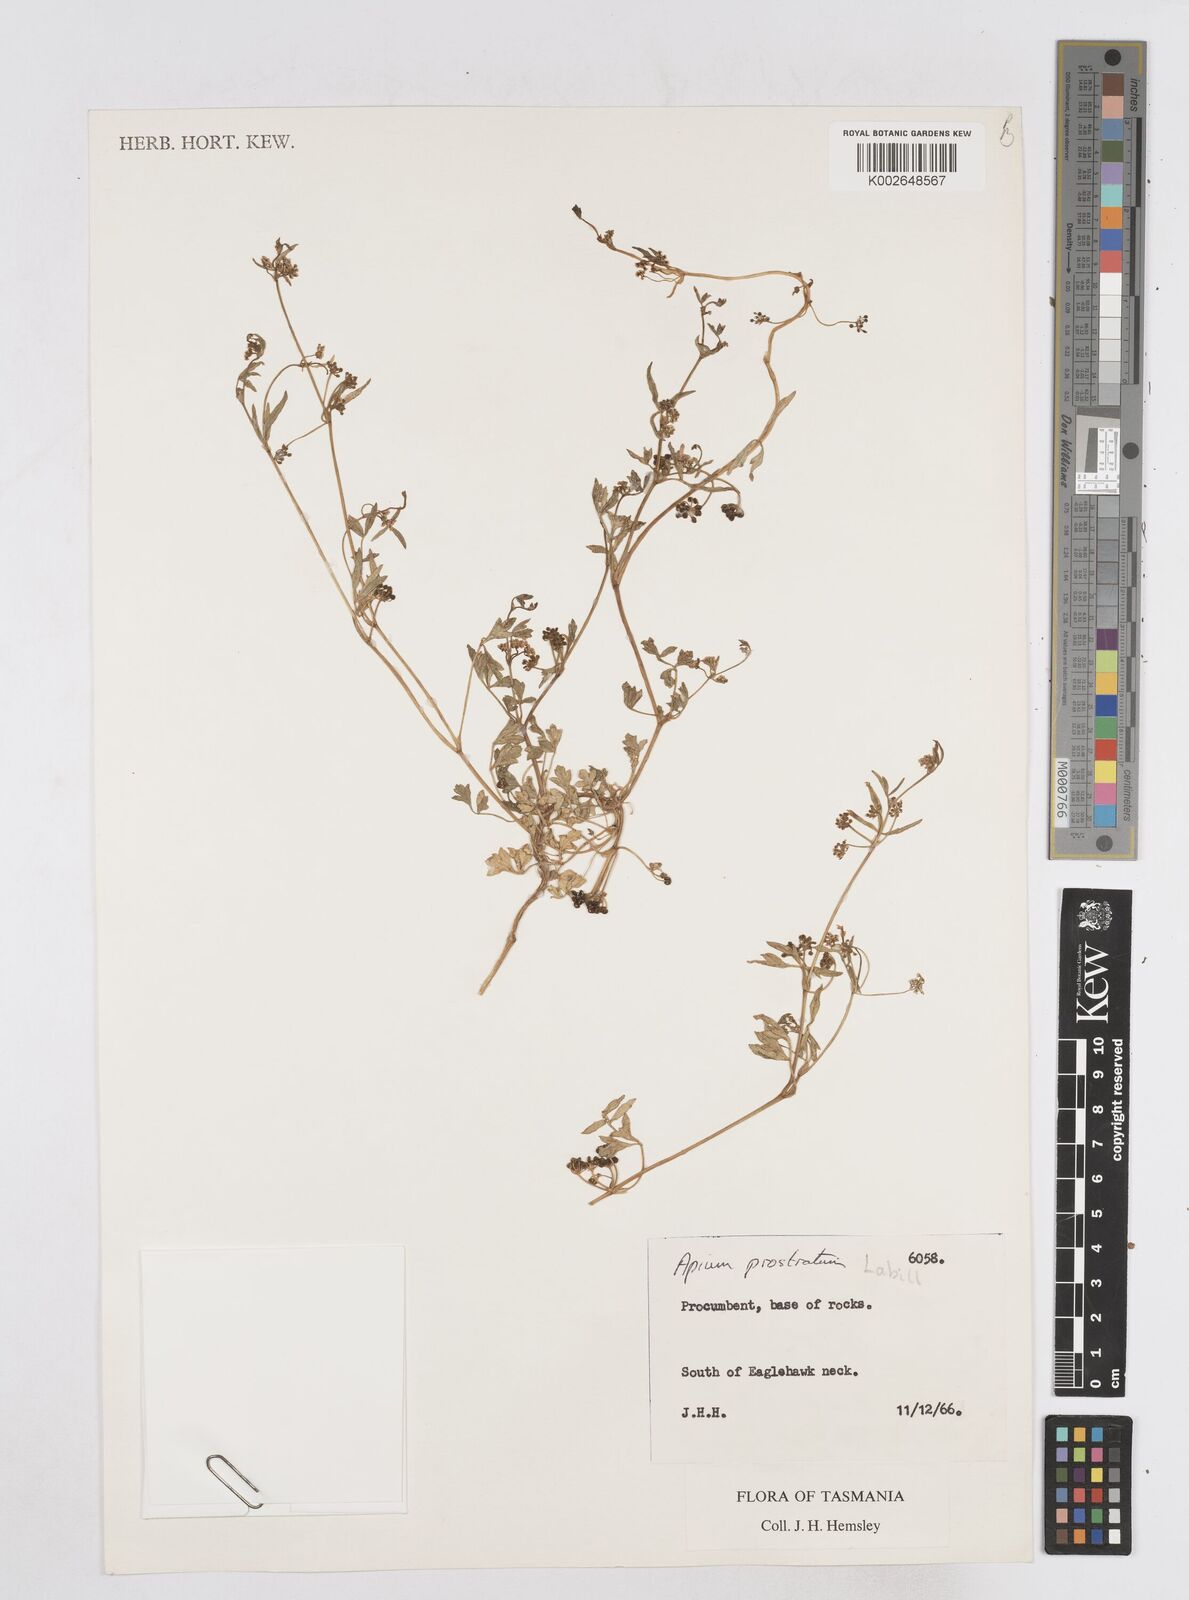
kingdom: Plantae
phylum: Tracheophyta
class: Magnoliopsida
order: Apiales
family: Apiaceae
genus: Apium
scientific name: Apium prostratum
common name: Prostrate marshwort
